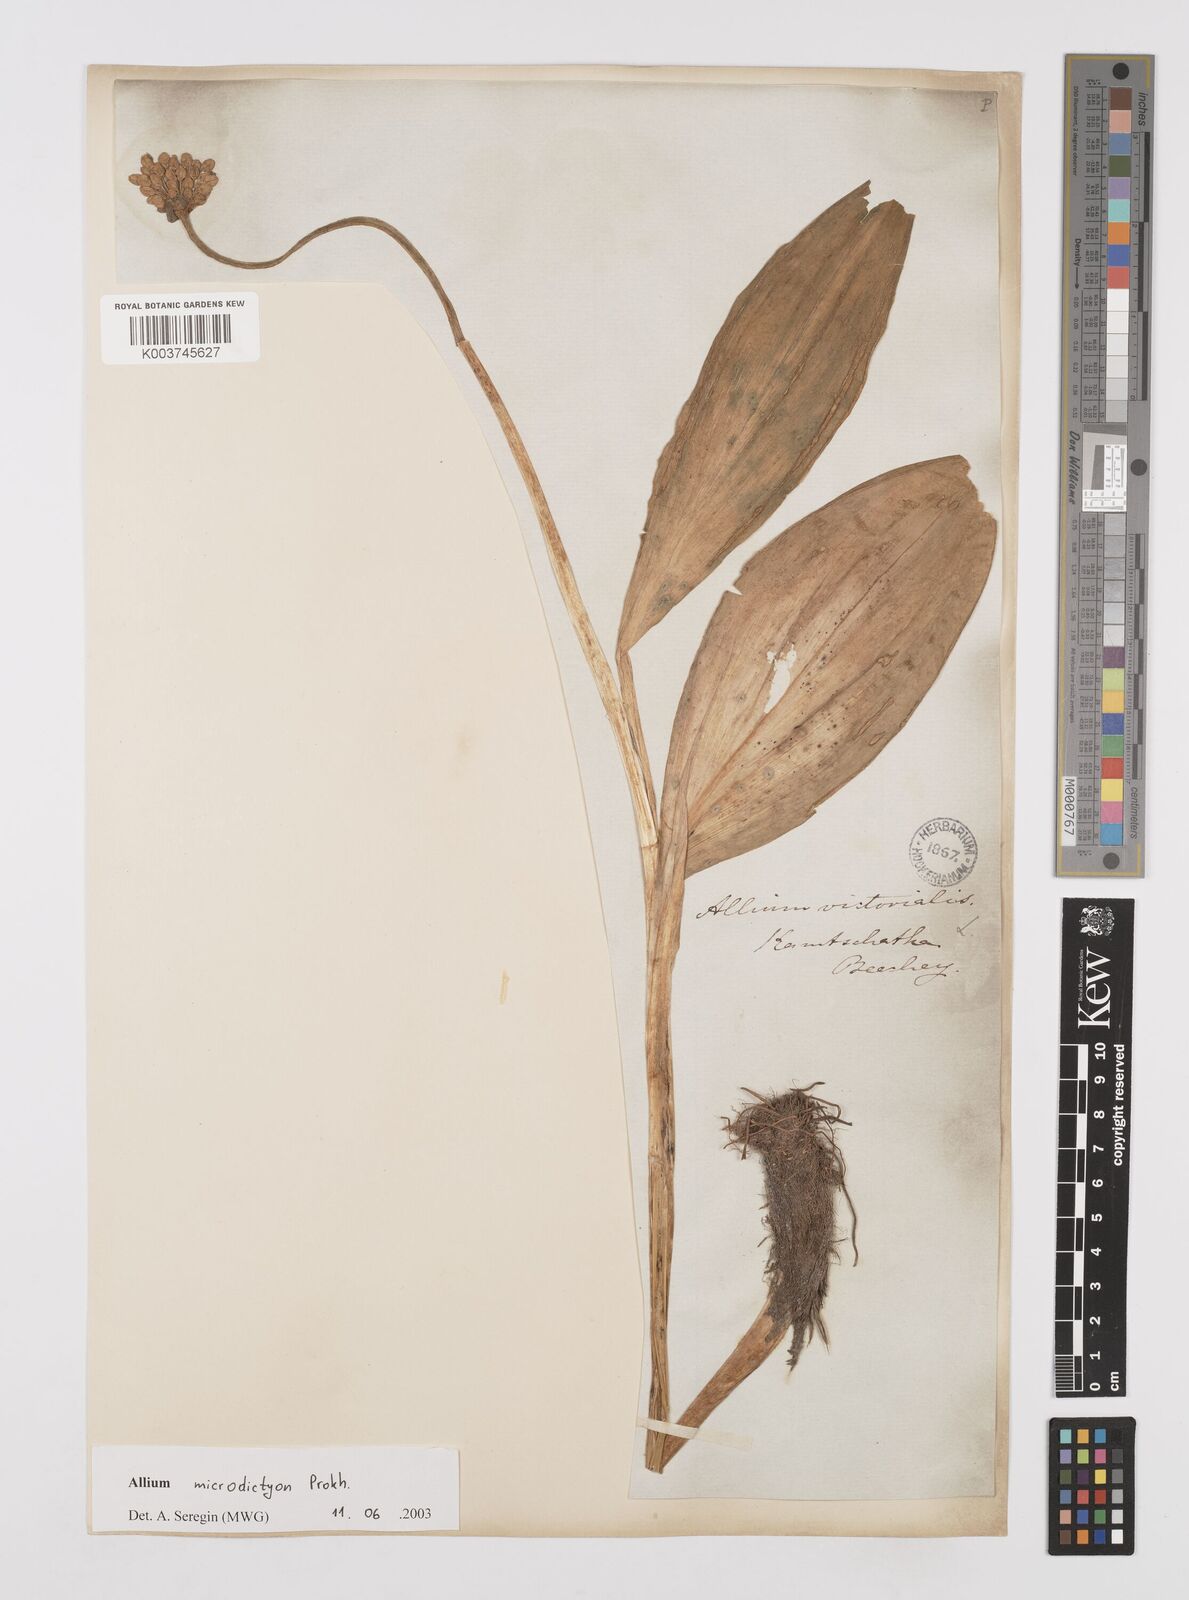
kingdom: Plantae
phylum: Tracheophyta
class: Liliopsida
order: Asparagales
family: Amaryllidaceae
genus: Allium
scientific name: Allium victorialis
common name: Alpine leek
